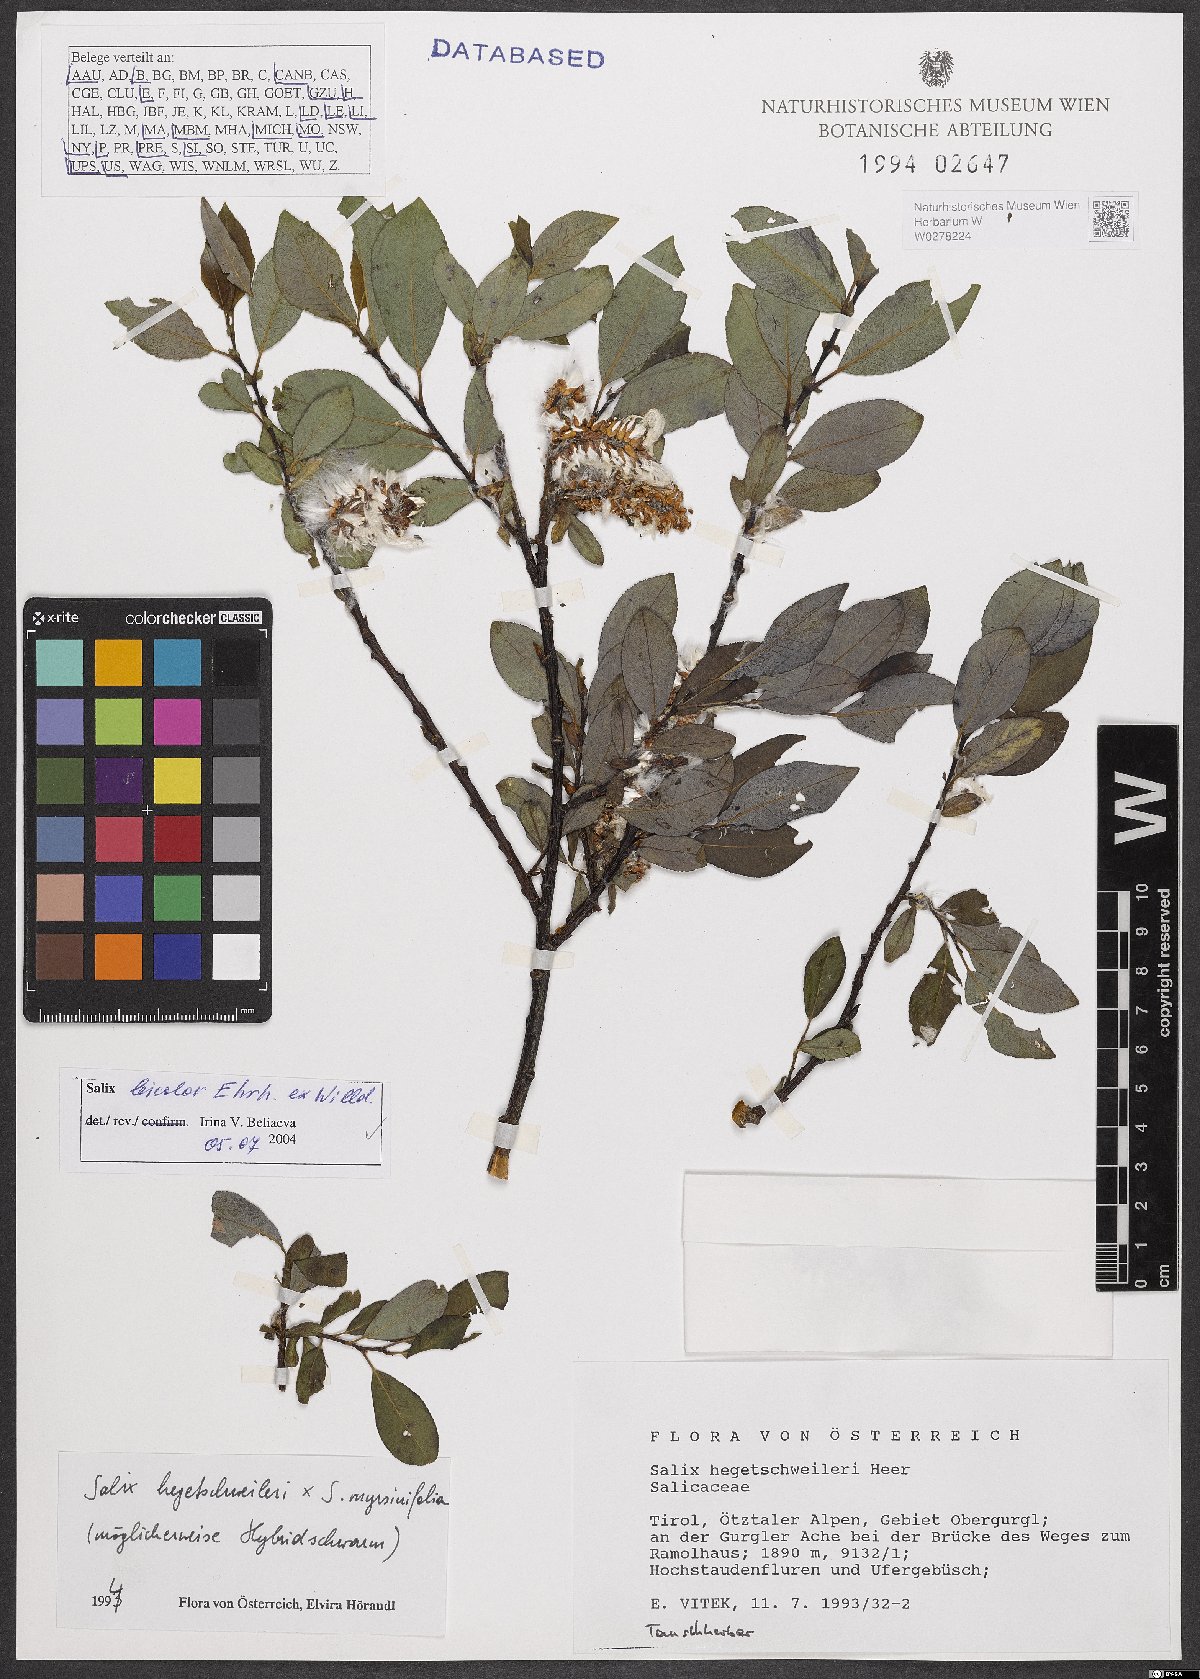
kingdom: Plantae
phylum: Tracheophyta
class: Magnoliopsida
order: Malpighiales
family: Salicaceae
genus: Salix
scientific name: Salix bicolor
